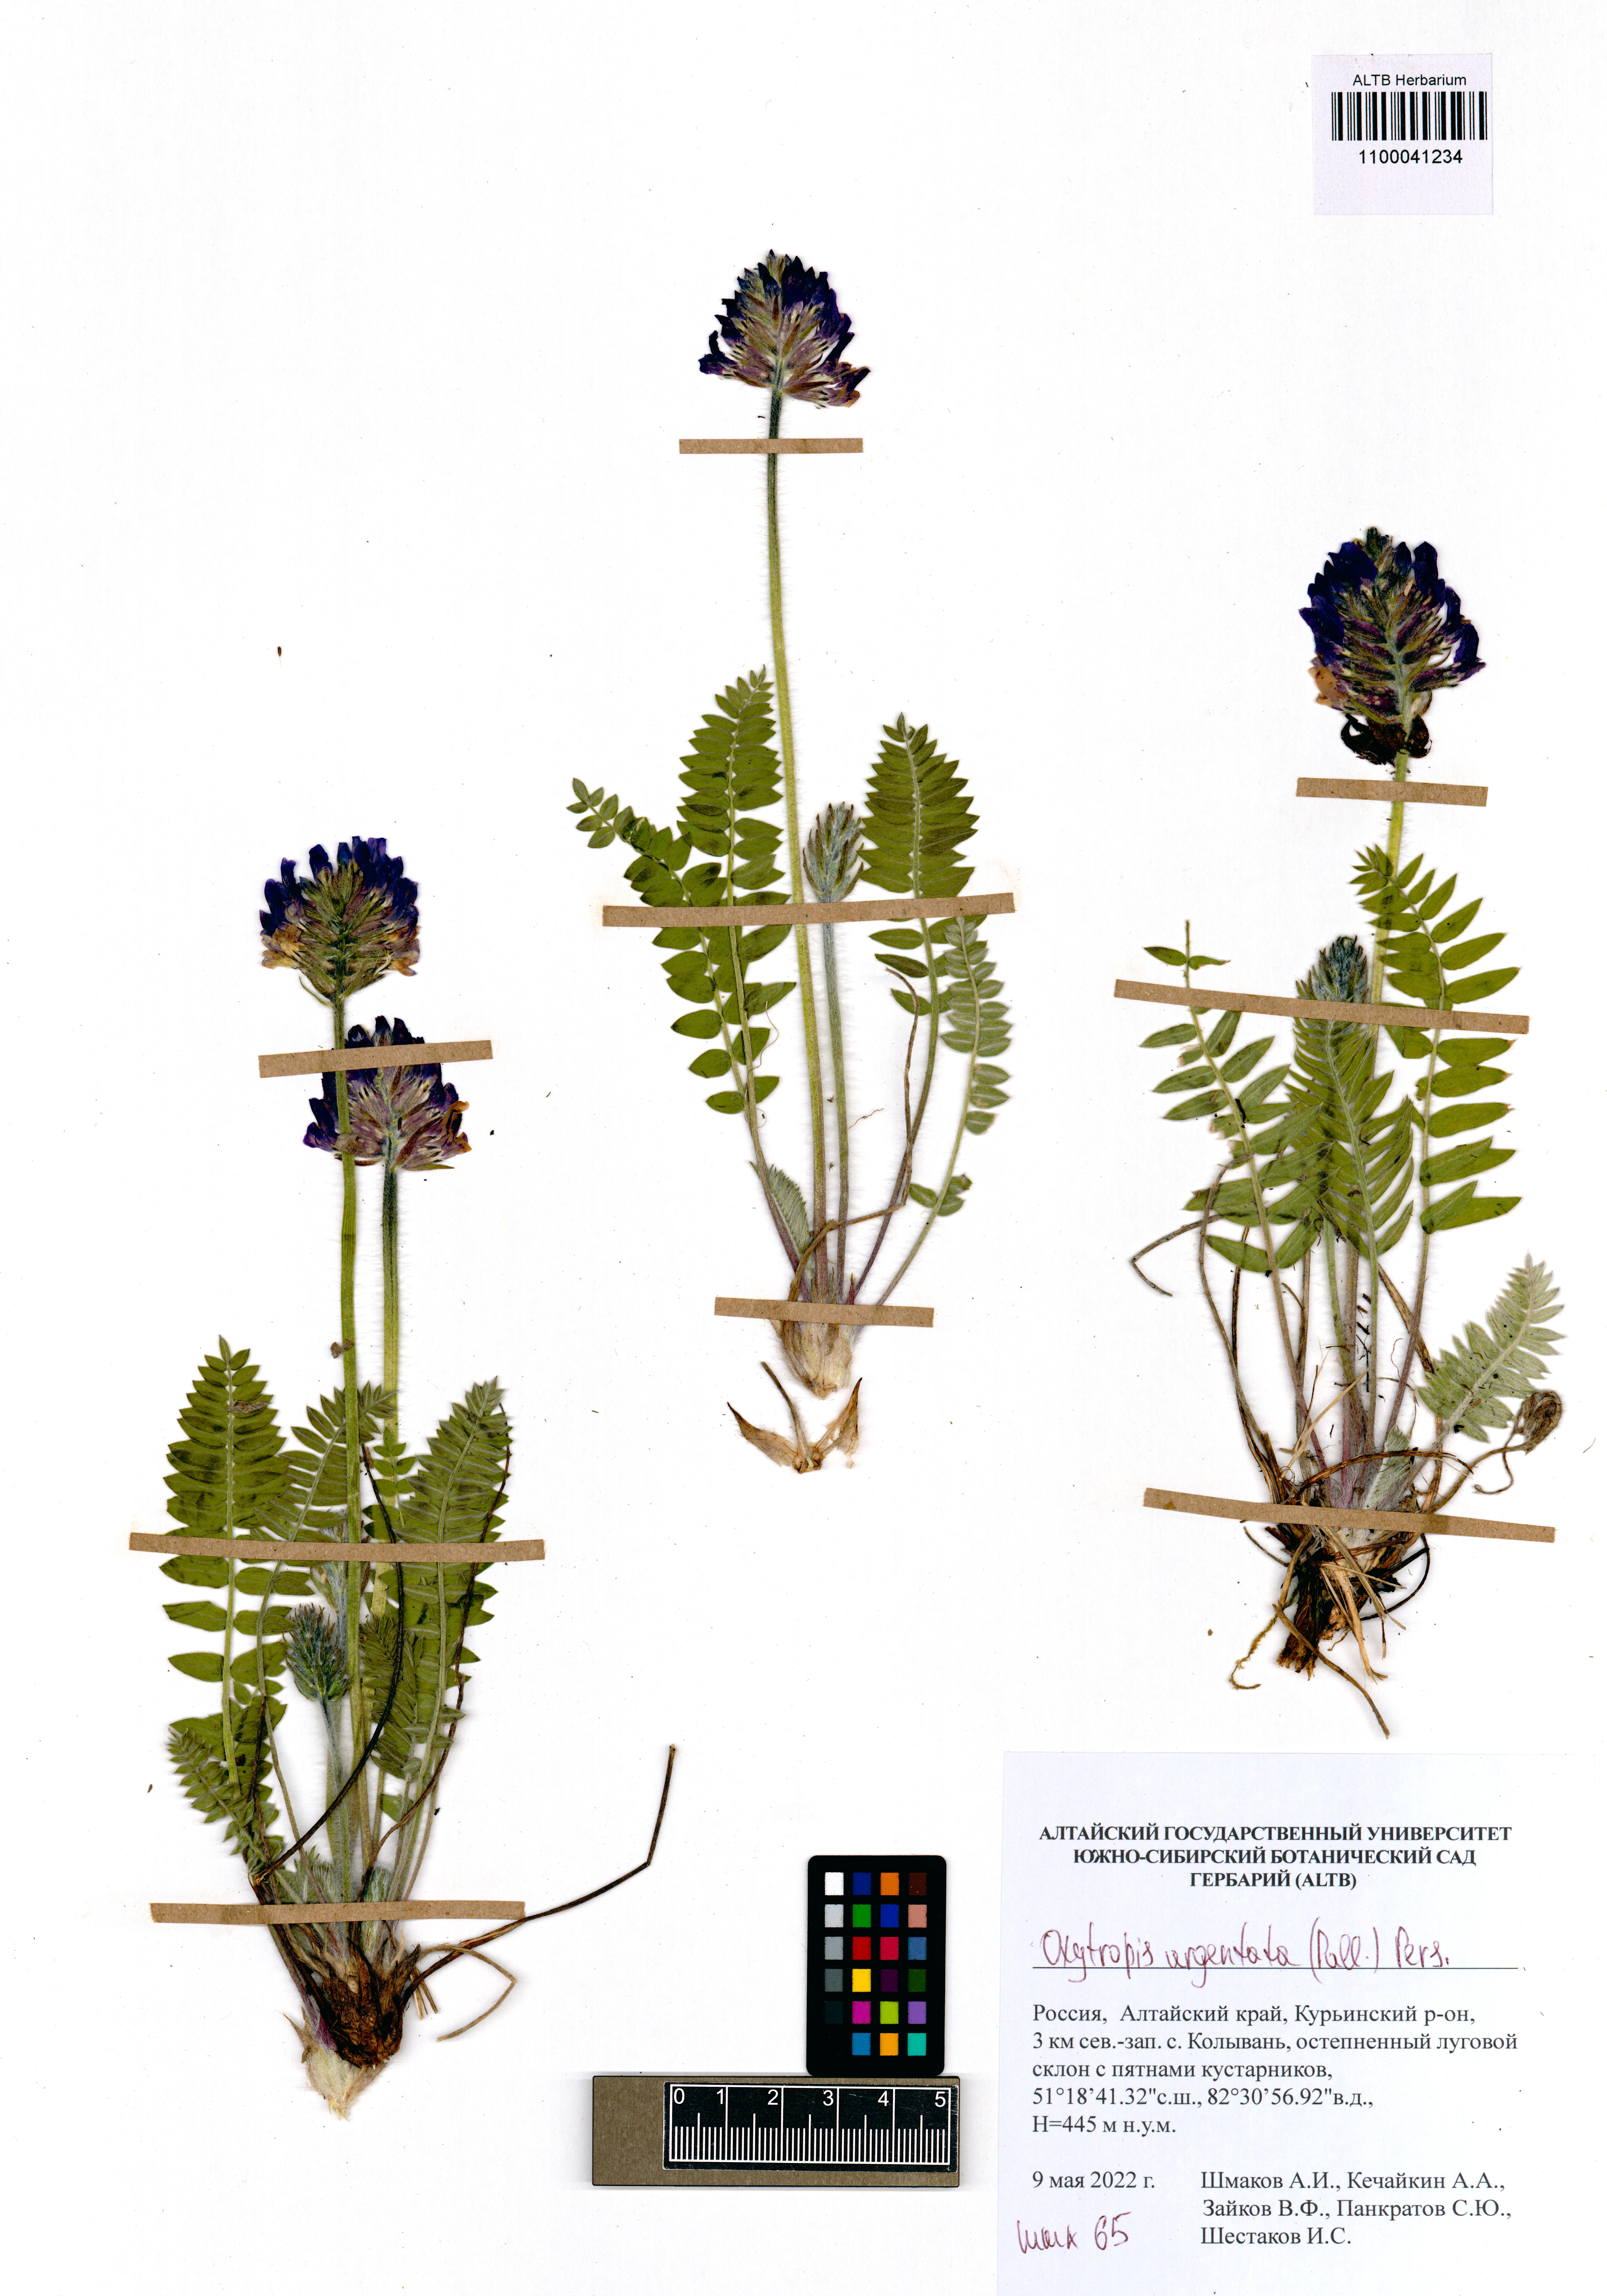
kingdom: Plantae
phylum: Tracheophyta
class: Magnoliopsida
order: Fabales
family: Fabaceae
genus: Oxytropis
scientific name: Oxytropis argentata
